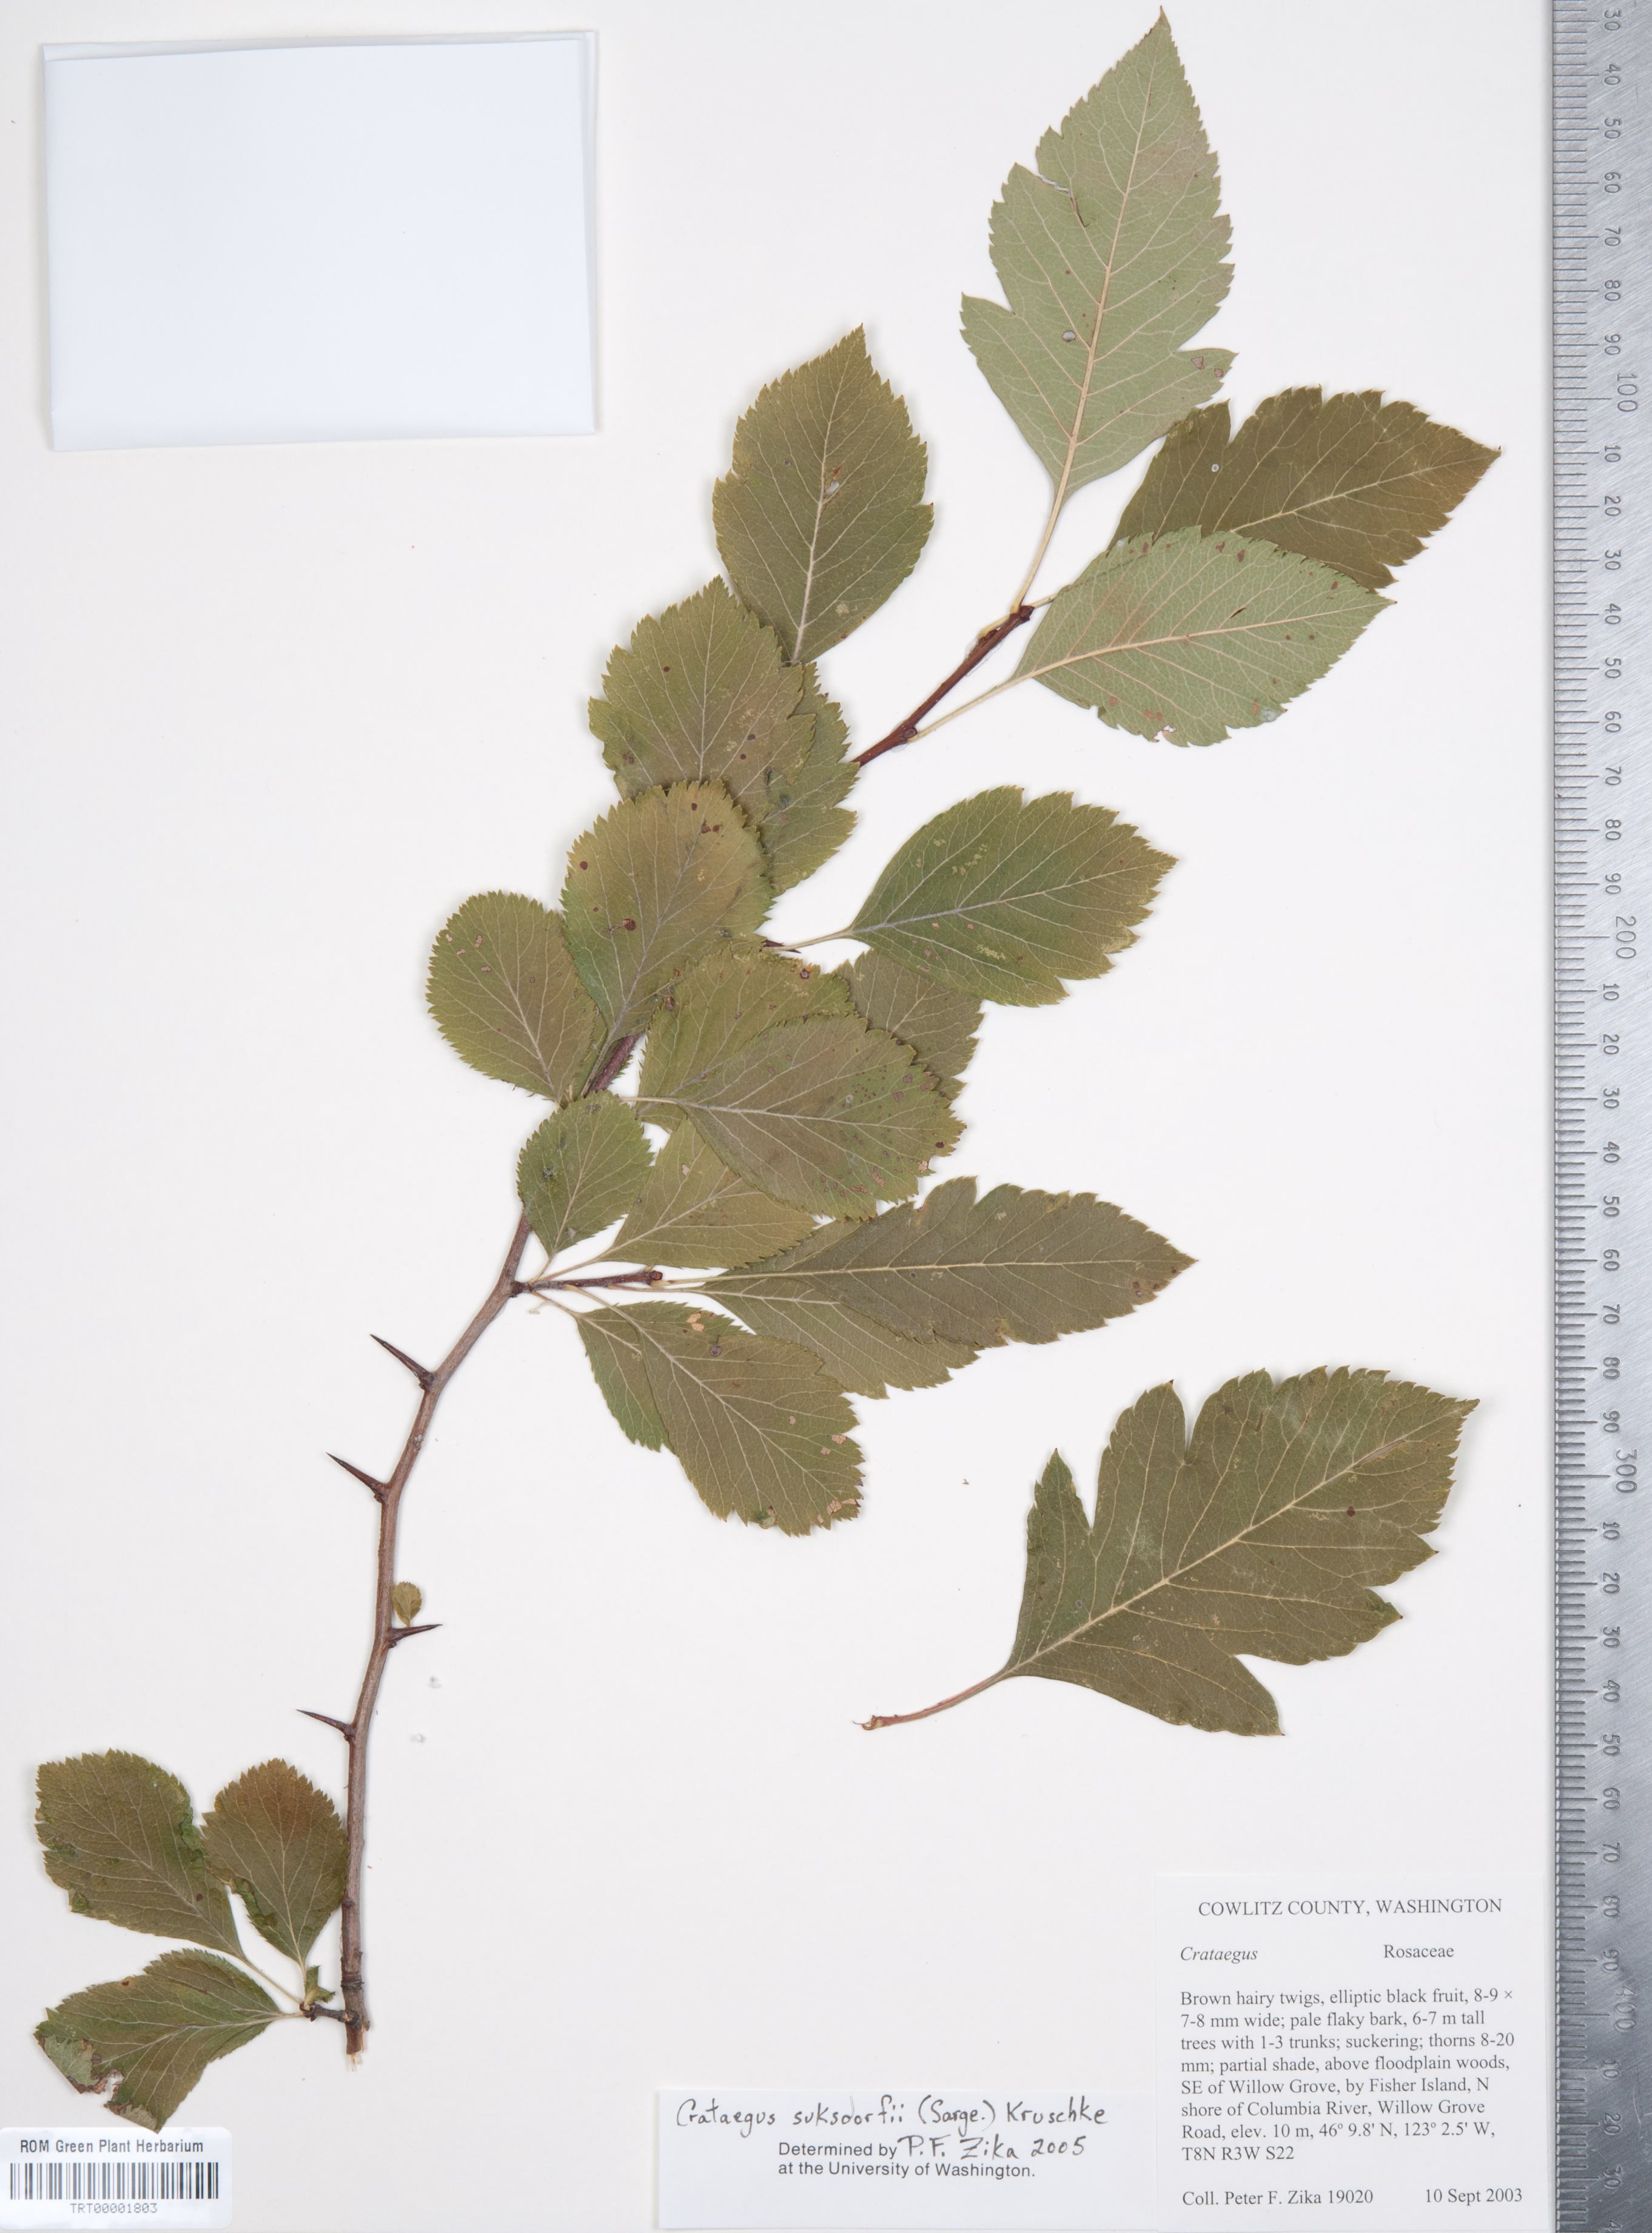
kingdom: Plantae
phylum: Tracheophyta
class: Magnoliopsida
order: Rosales
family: Rosaceae
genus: Crataegus
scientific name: Crataegus gaylussacia
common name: Huckleberry hawthorn
